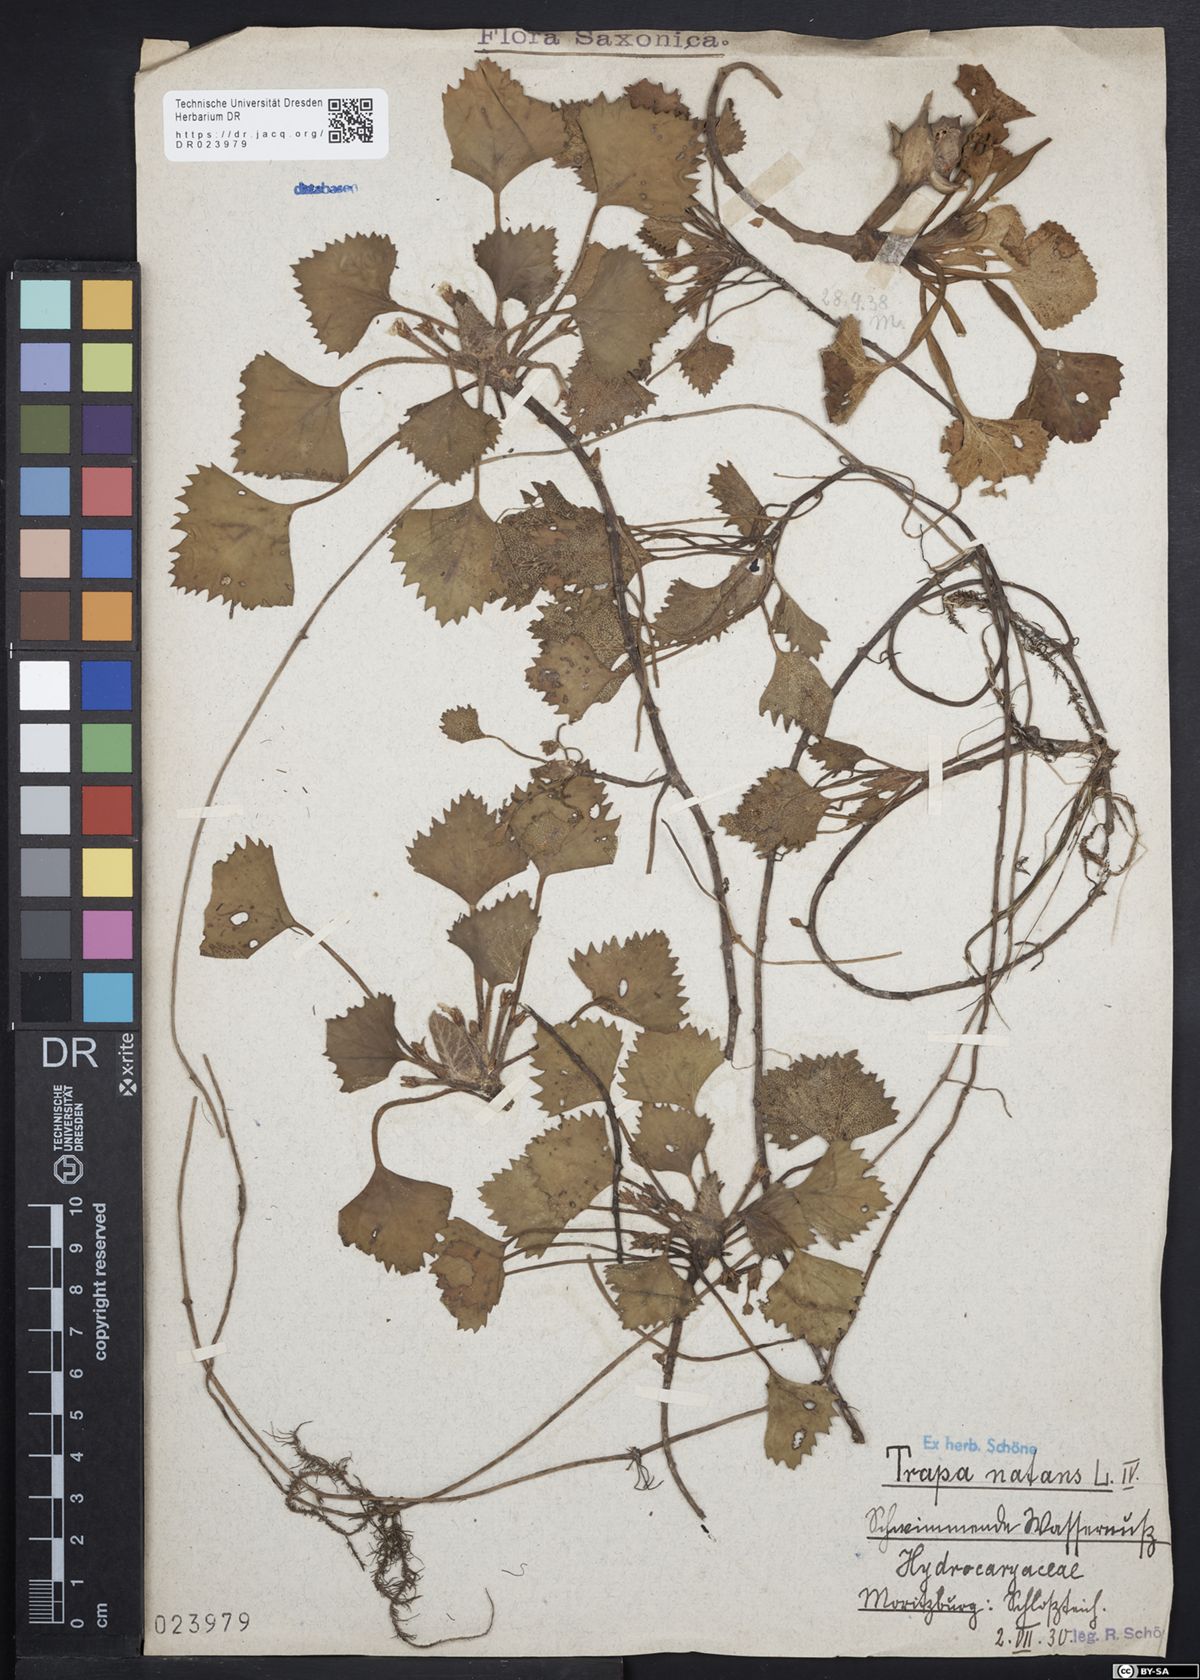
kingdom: Plantae
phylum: Tracheophyta
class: Magnoliopsida
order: Myrtales
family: Lythraceae
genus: Trapa
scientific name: Trapa natans
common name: Water chestnut
